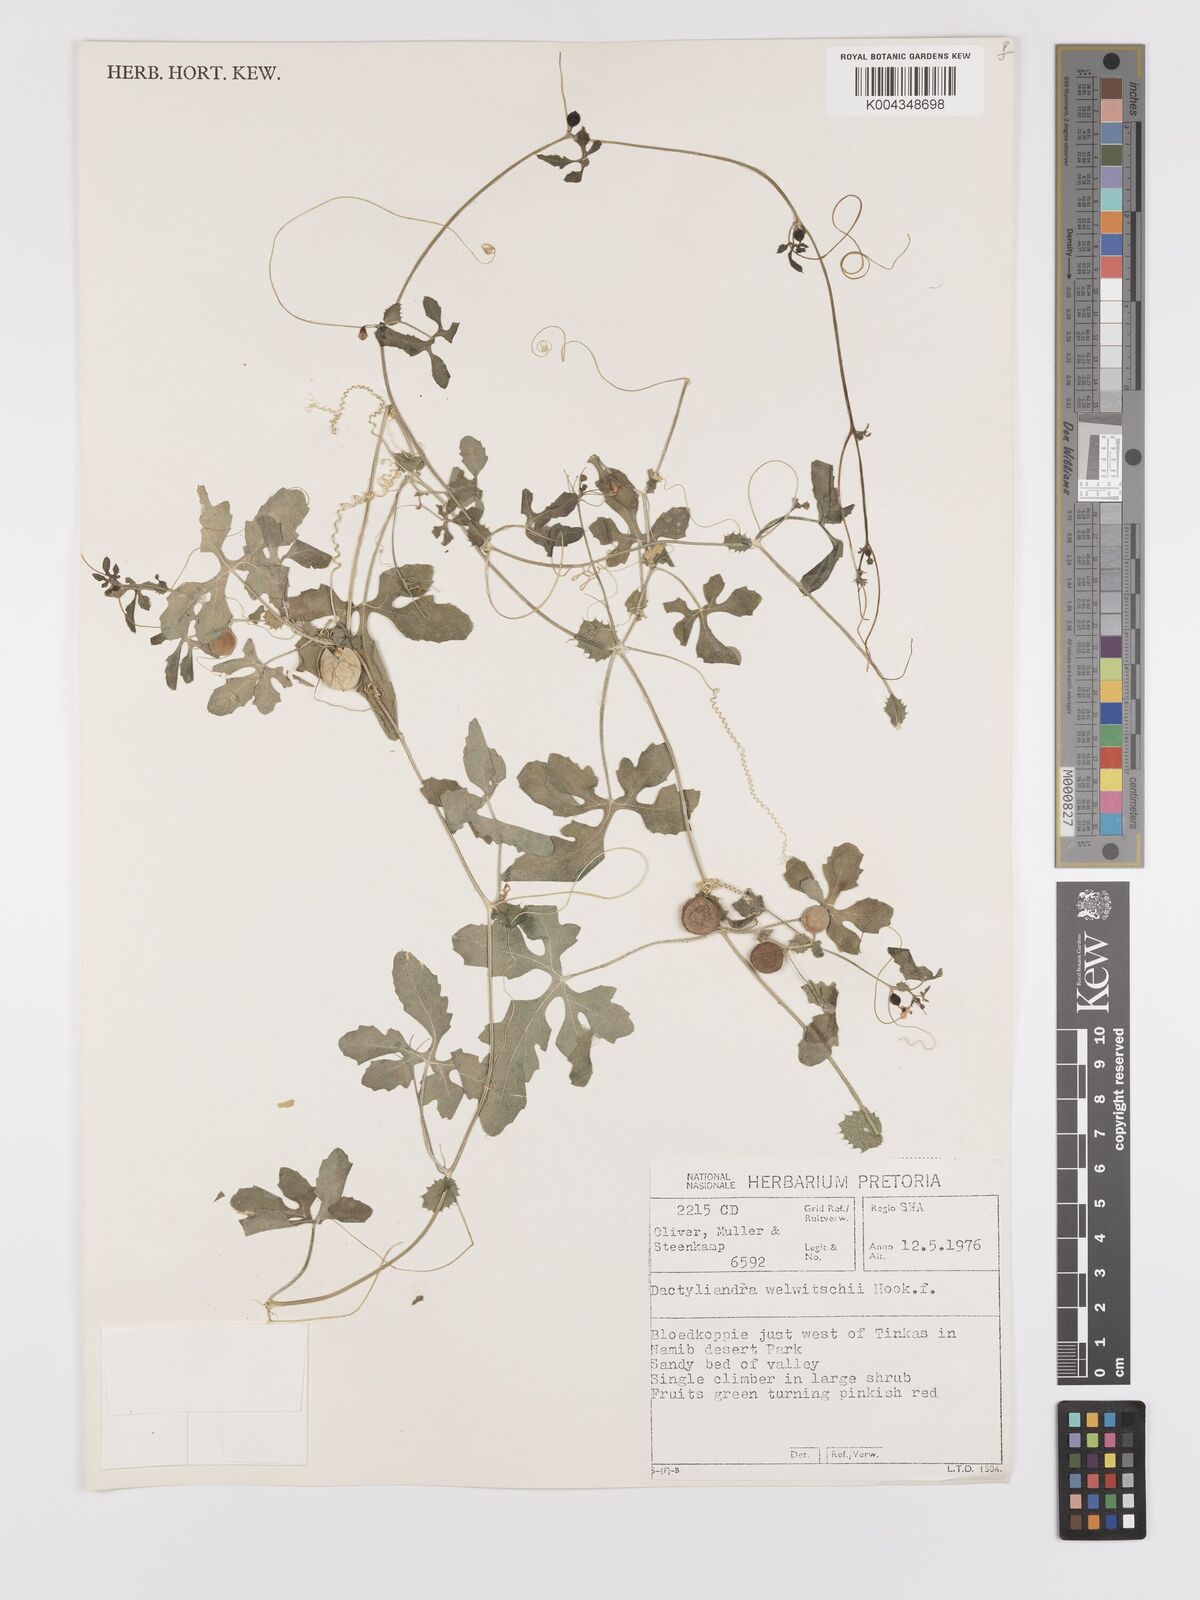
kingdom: Plantae
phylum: Tracheophyta
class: Magnoliopsida
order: Cucurbitales
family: Cucurbitaceae
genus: Dactyliandra
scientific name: Dactyliandra welwitschii
